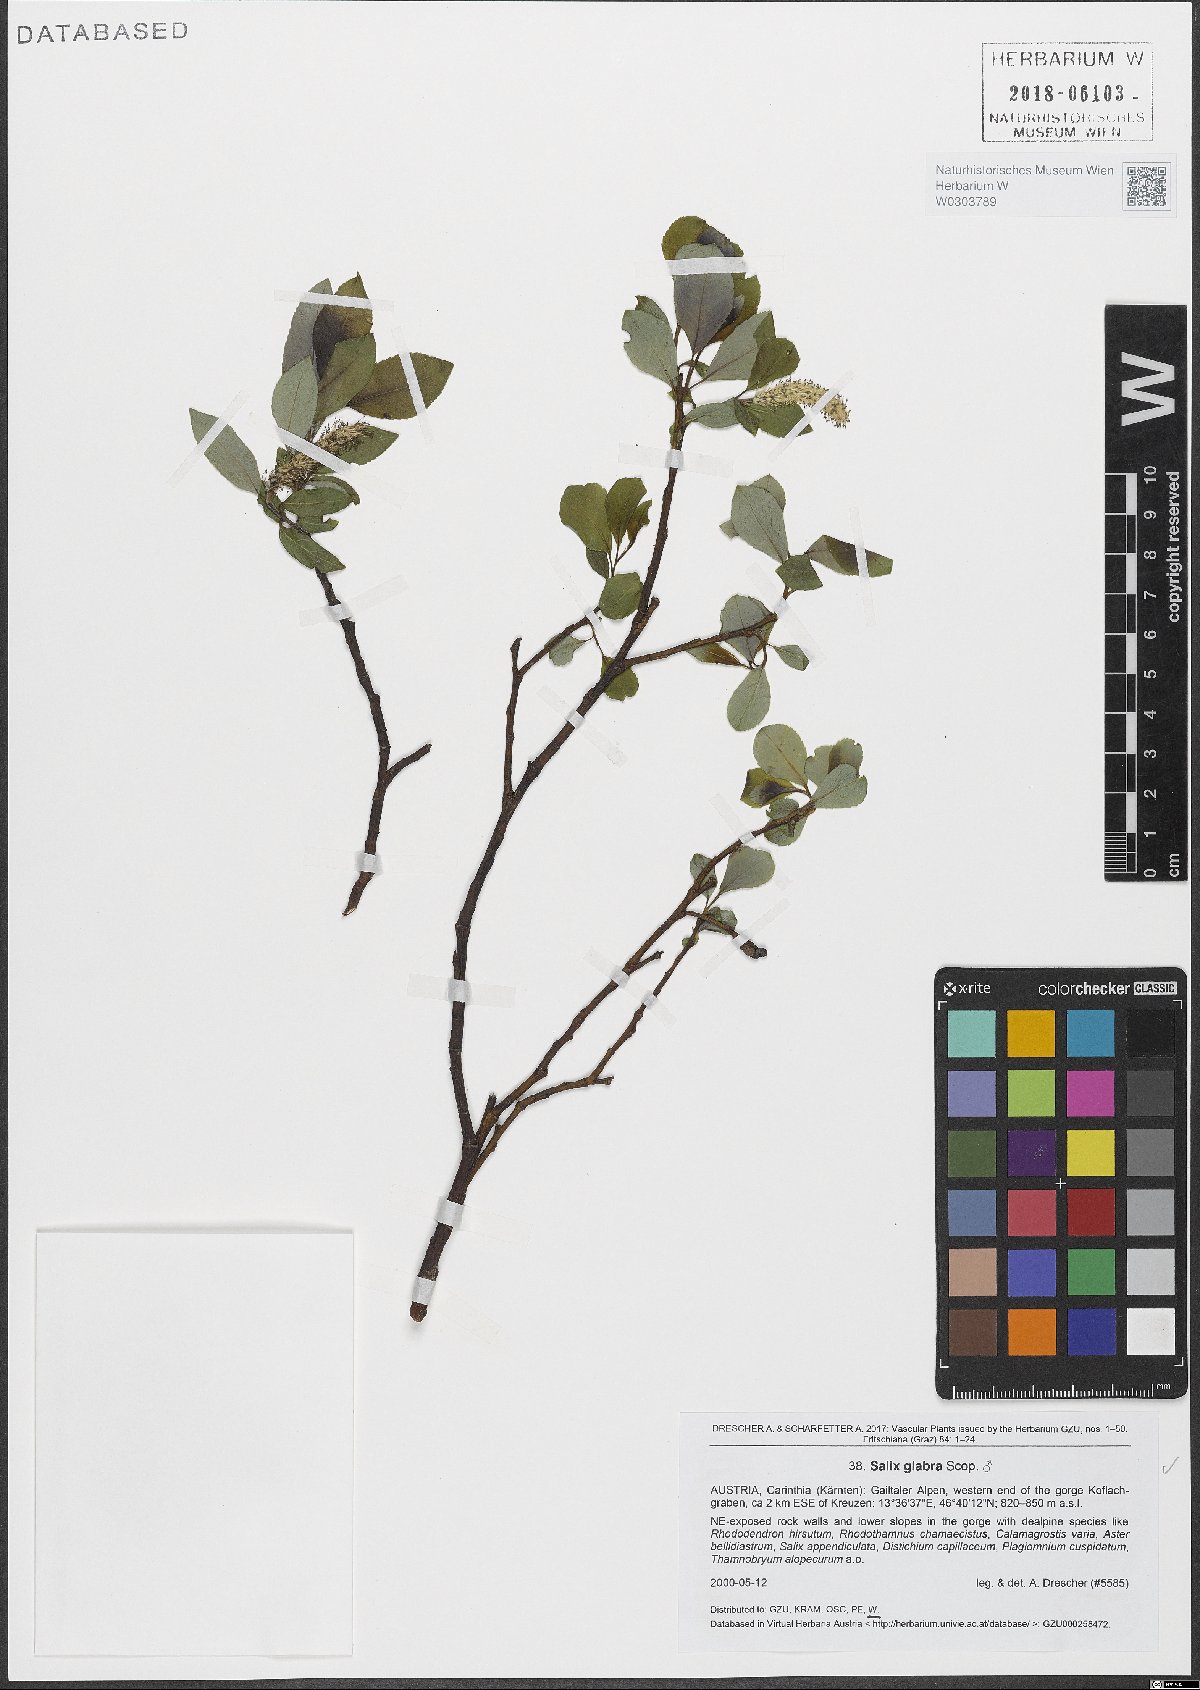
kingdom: Plantae
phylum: Tracheophyta
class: Magnoliopsida
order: Malpighiales
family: Salicaceae
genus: Salix
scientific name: Salix glabra
